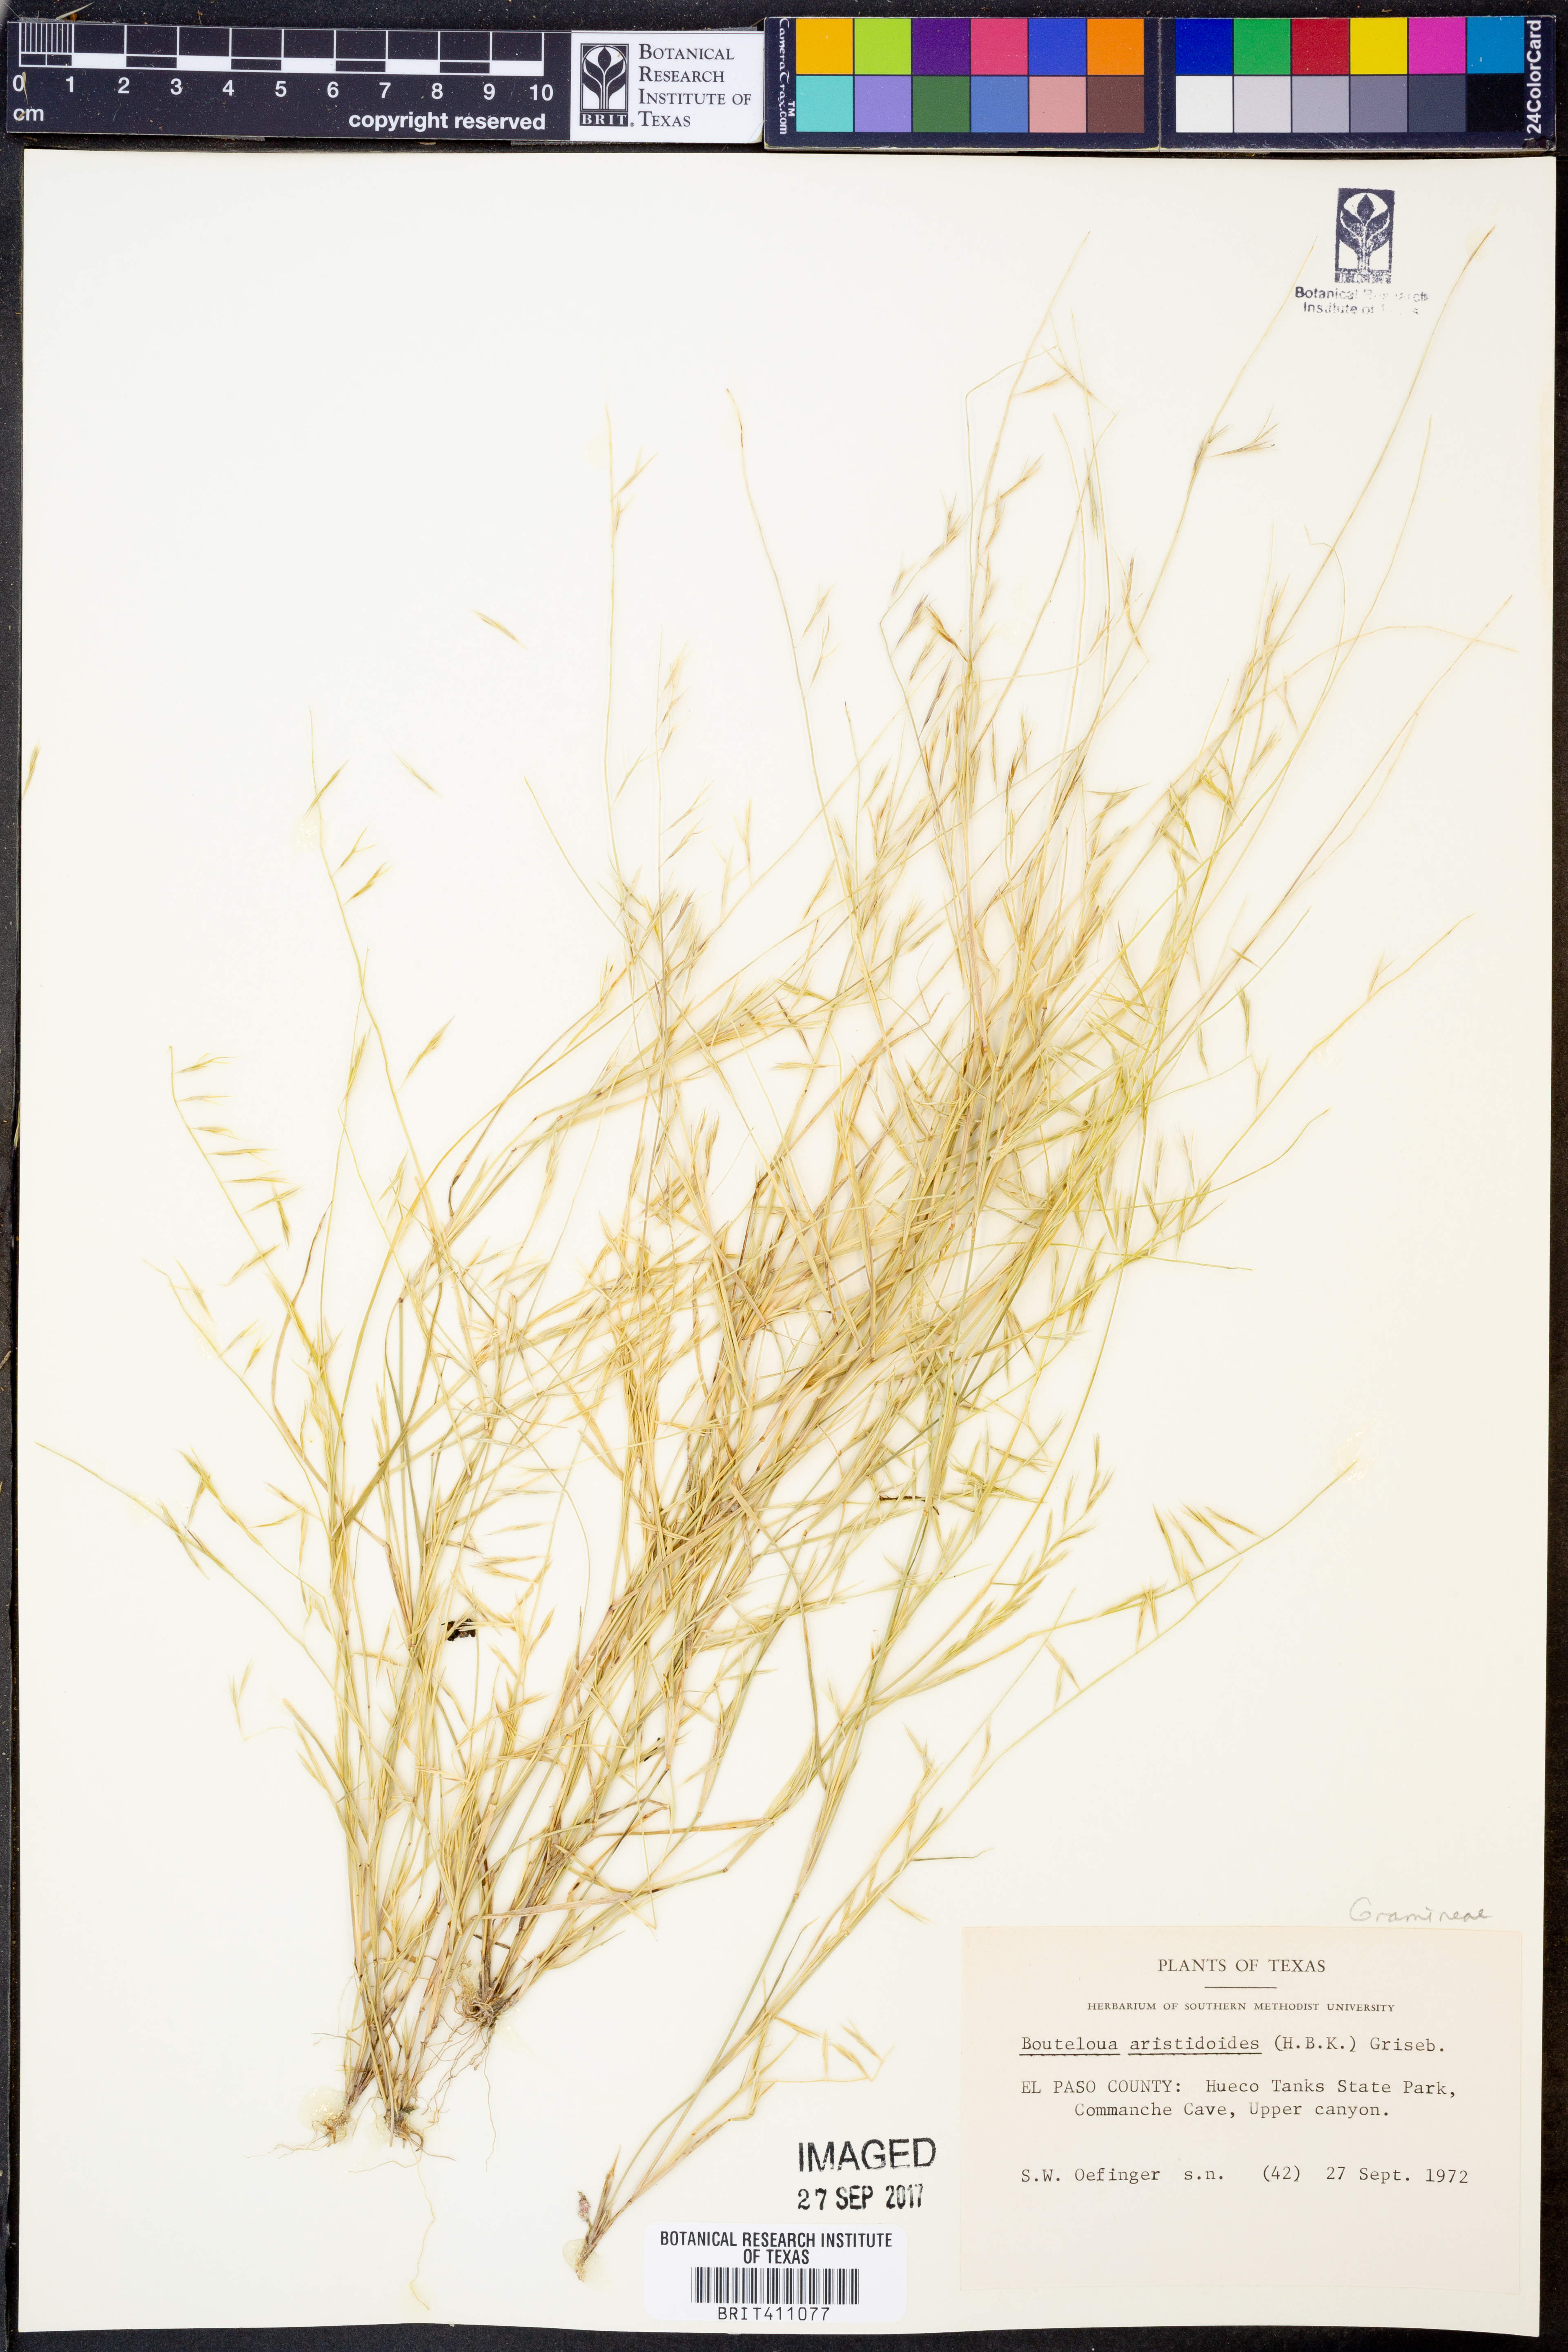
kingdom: Plantae
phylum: Tracheophyta
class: Liliopsida
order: Poales
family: Poaceae
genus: Bouteloua
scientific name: Bouteloua aristidoides
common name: Needle grama
